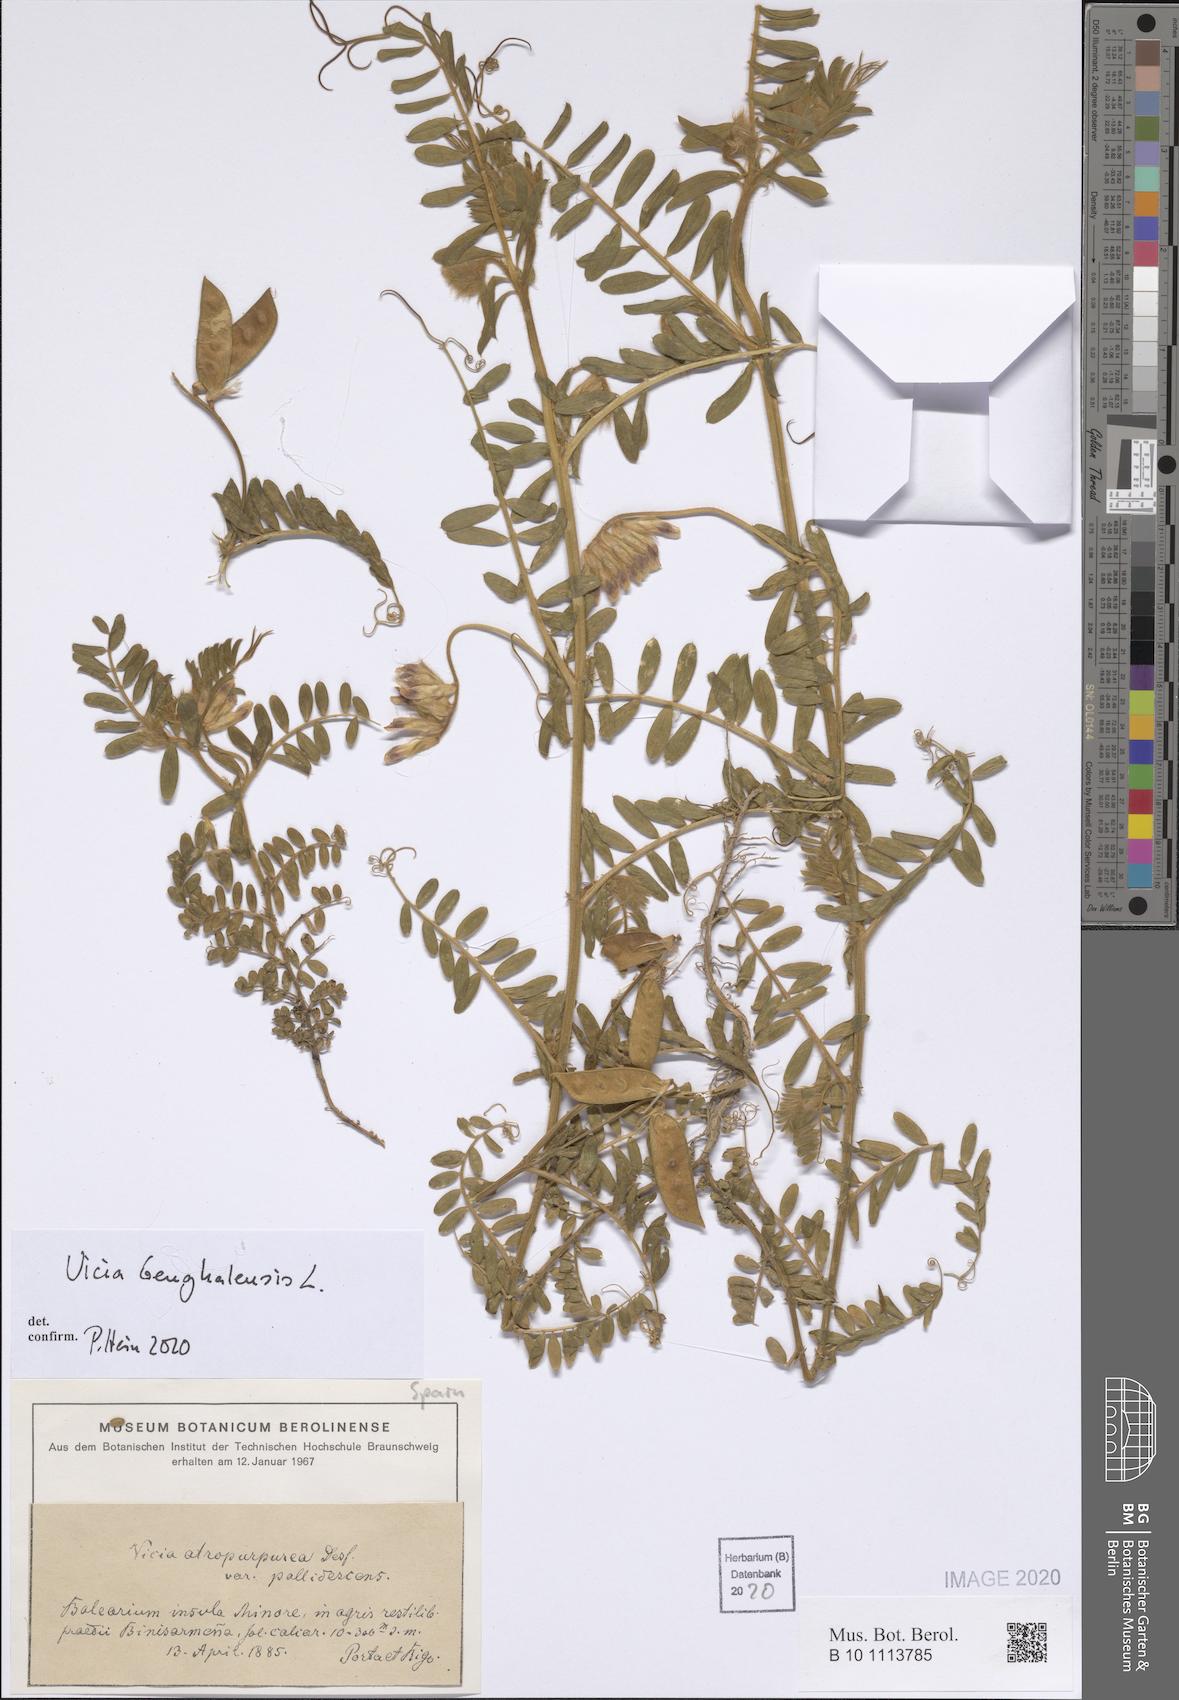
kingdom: Plantae
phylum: Tracheophyta
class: Magnoliopsida
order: Fabales
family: Fabaceae
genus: Vicia
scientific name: Vicia benghalensis
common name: Purple vetch
